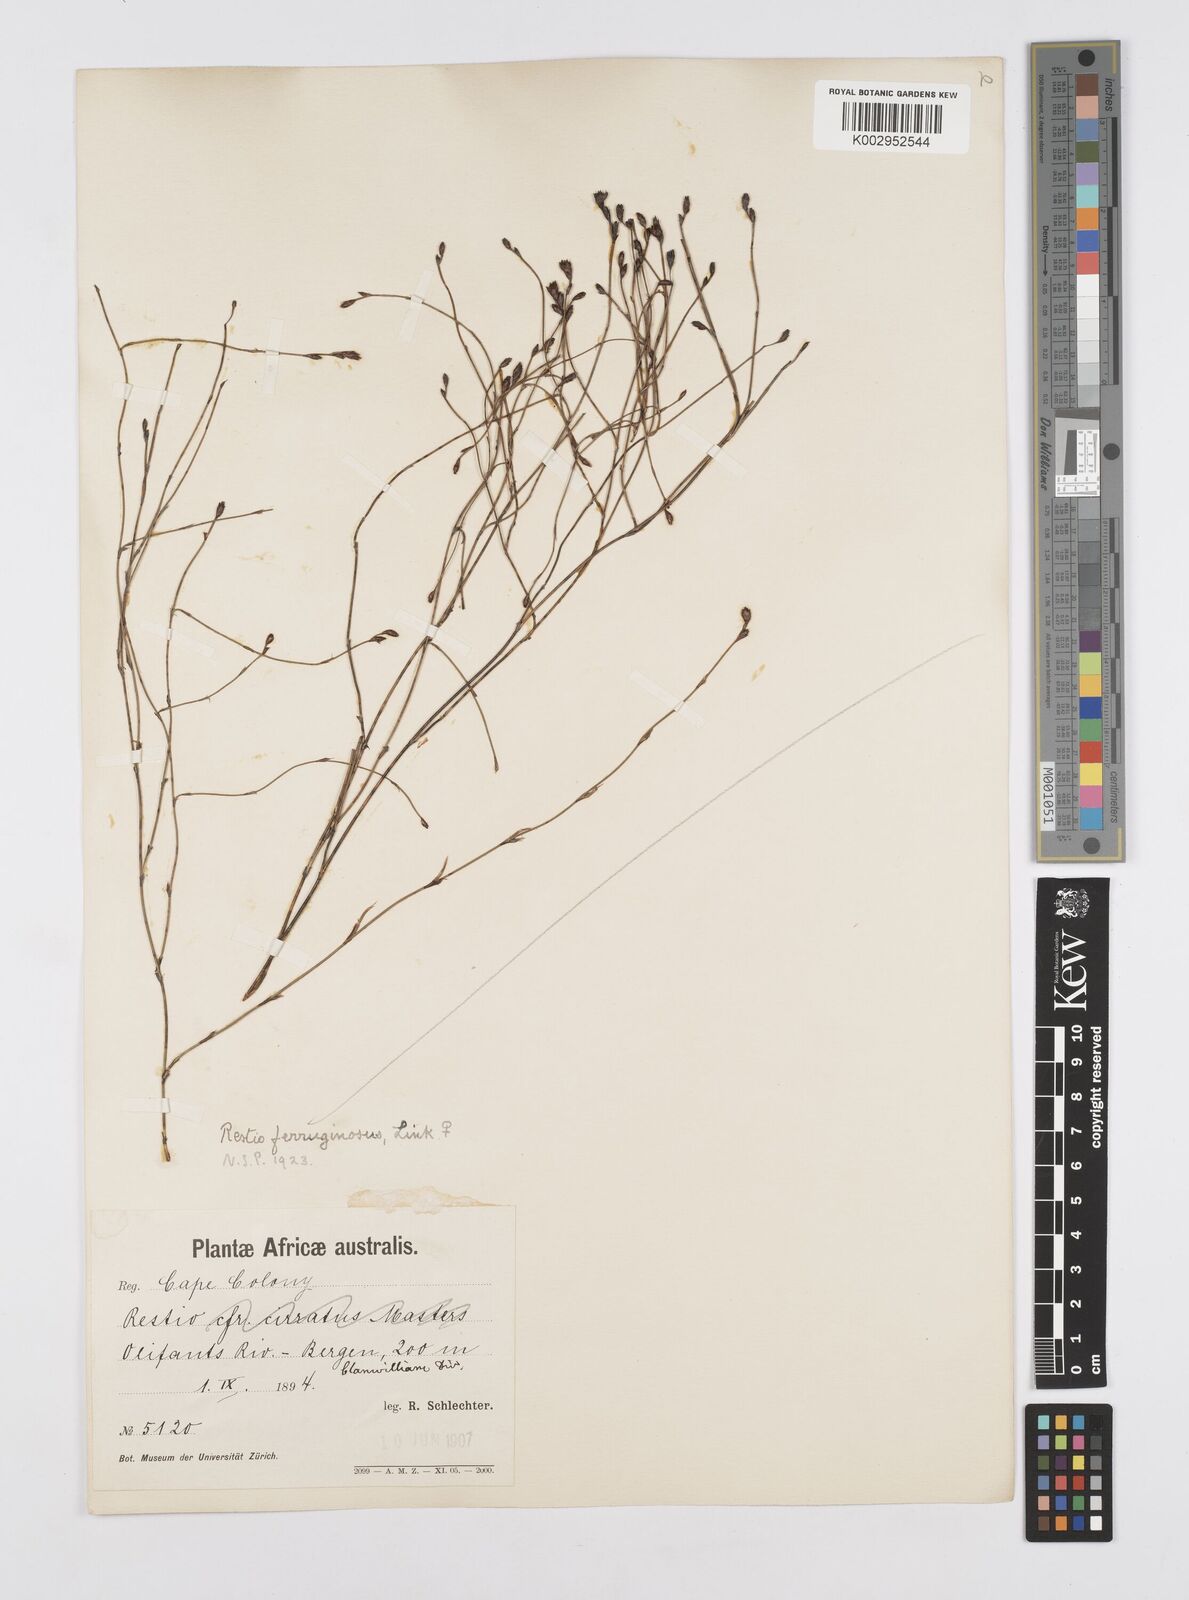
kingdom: Plantae
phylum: Tracheophyta
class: Liliopsida
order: Poales
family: Restionaceae
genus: Restio
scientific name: Restio gaudichaudianus
